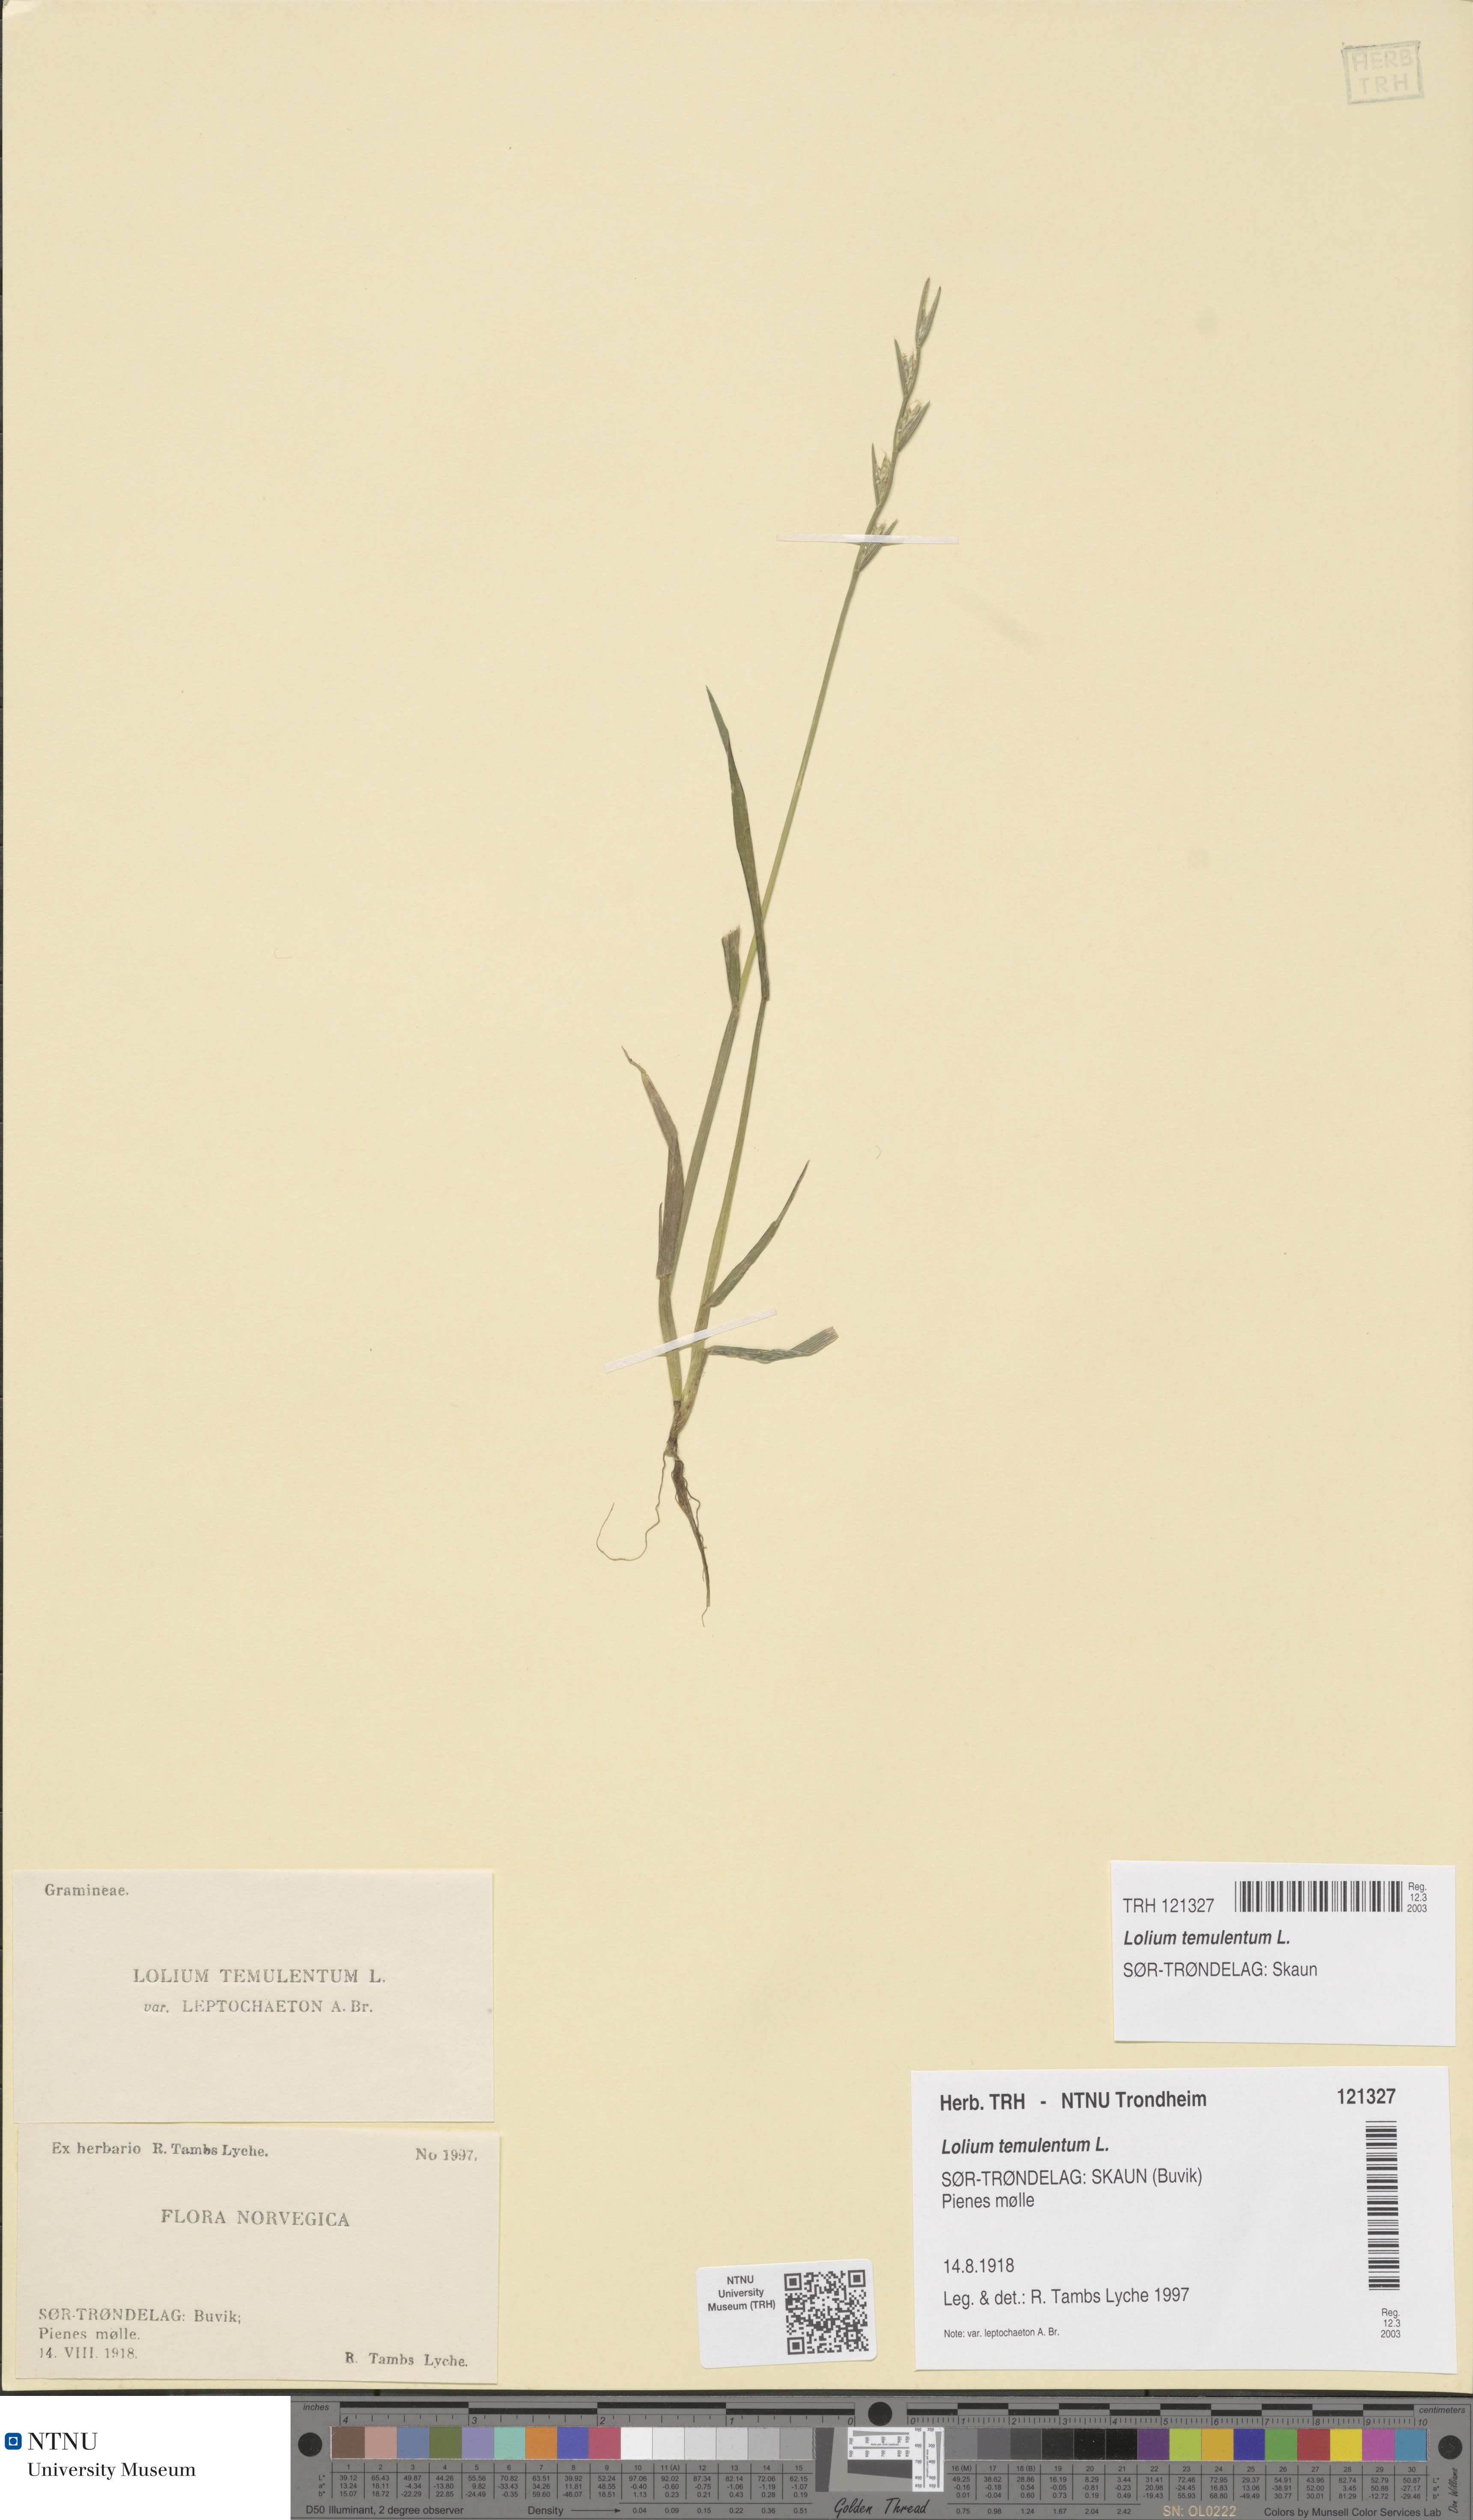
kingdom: Plantae
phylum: Tracheophyta
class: Liliopsida
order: Poales
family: Poaceae
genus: Lolium
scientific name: Lolium temulentum
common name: Darnel
